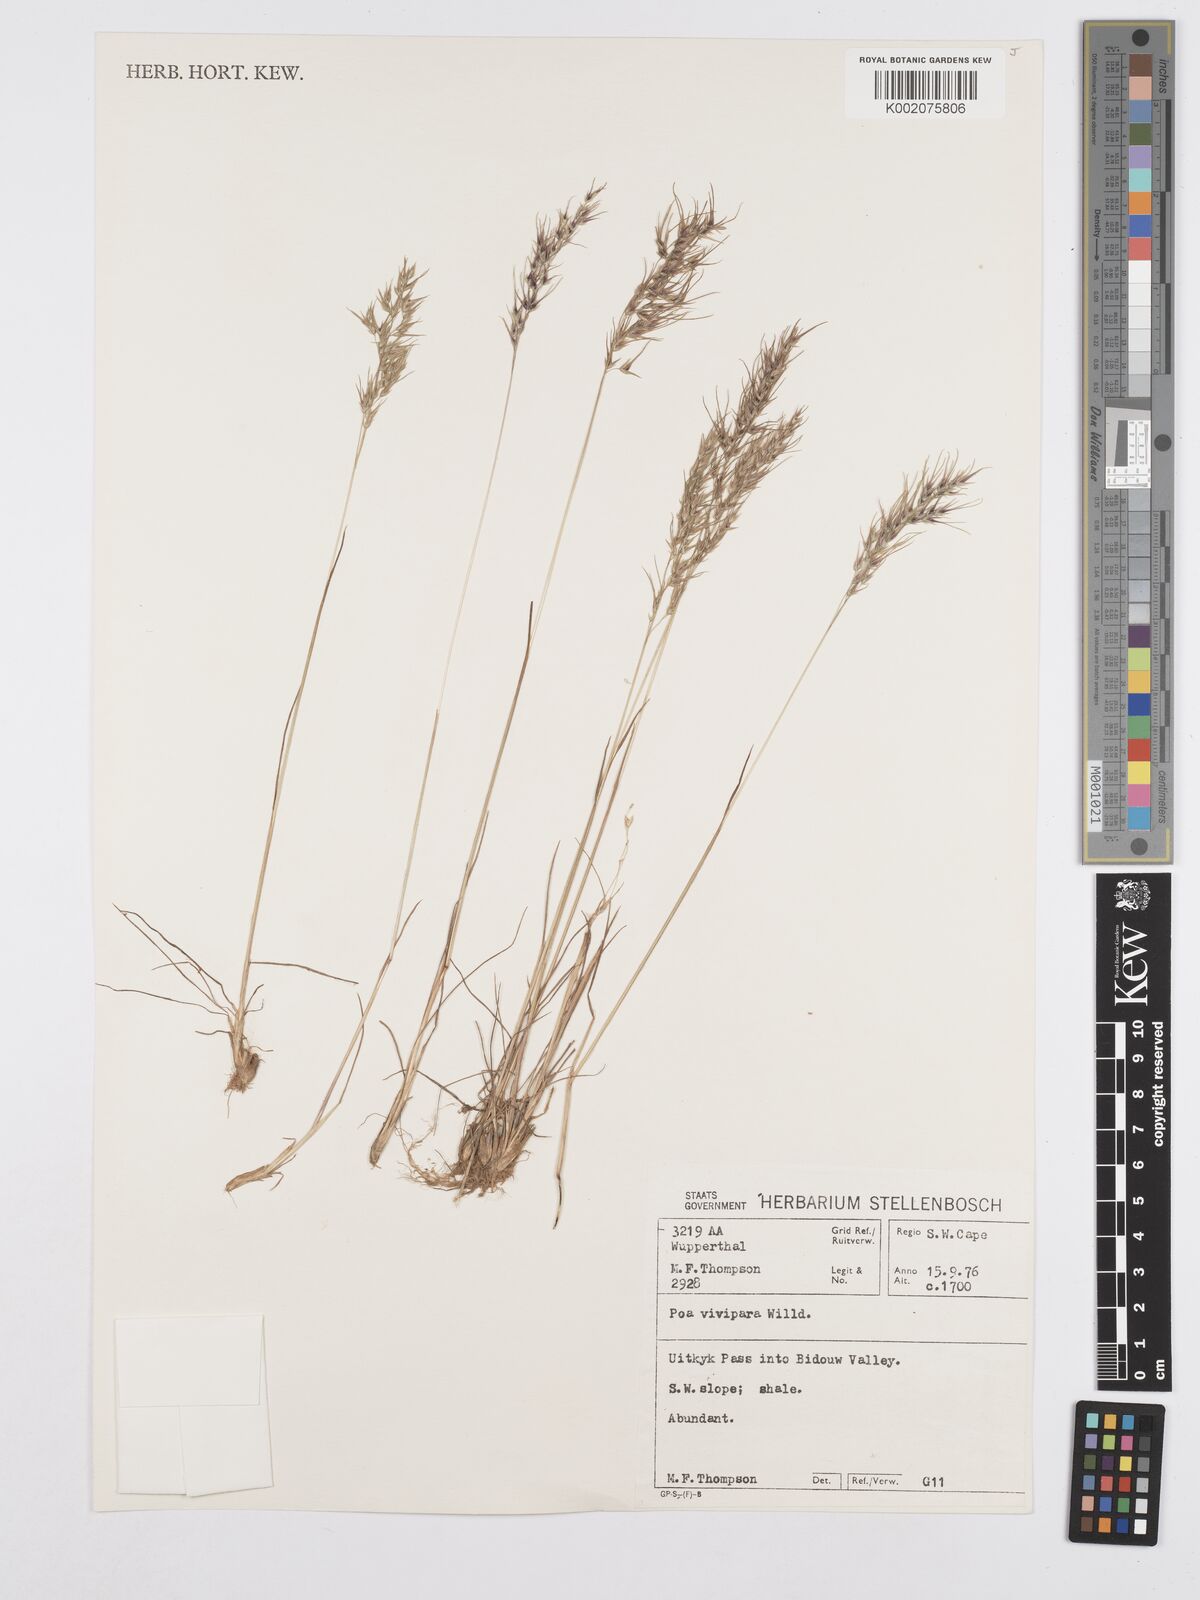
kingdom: Plantae
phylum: Tracheophyta
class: Liliopsida
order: Poales
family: Poaceae
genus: Poa
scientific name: Poa bulbosa
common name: Bulbous bluegrass
